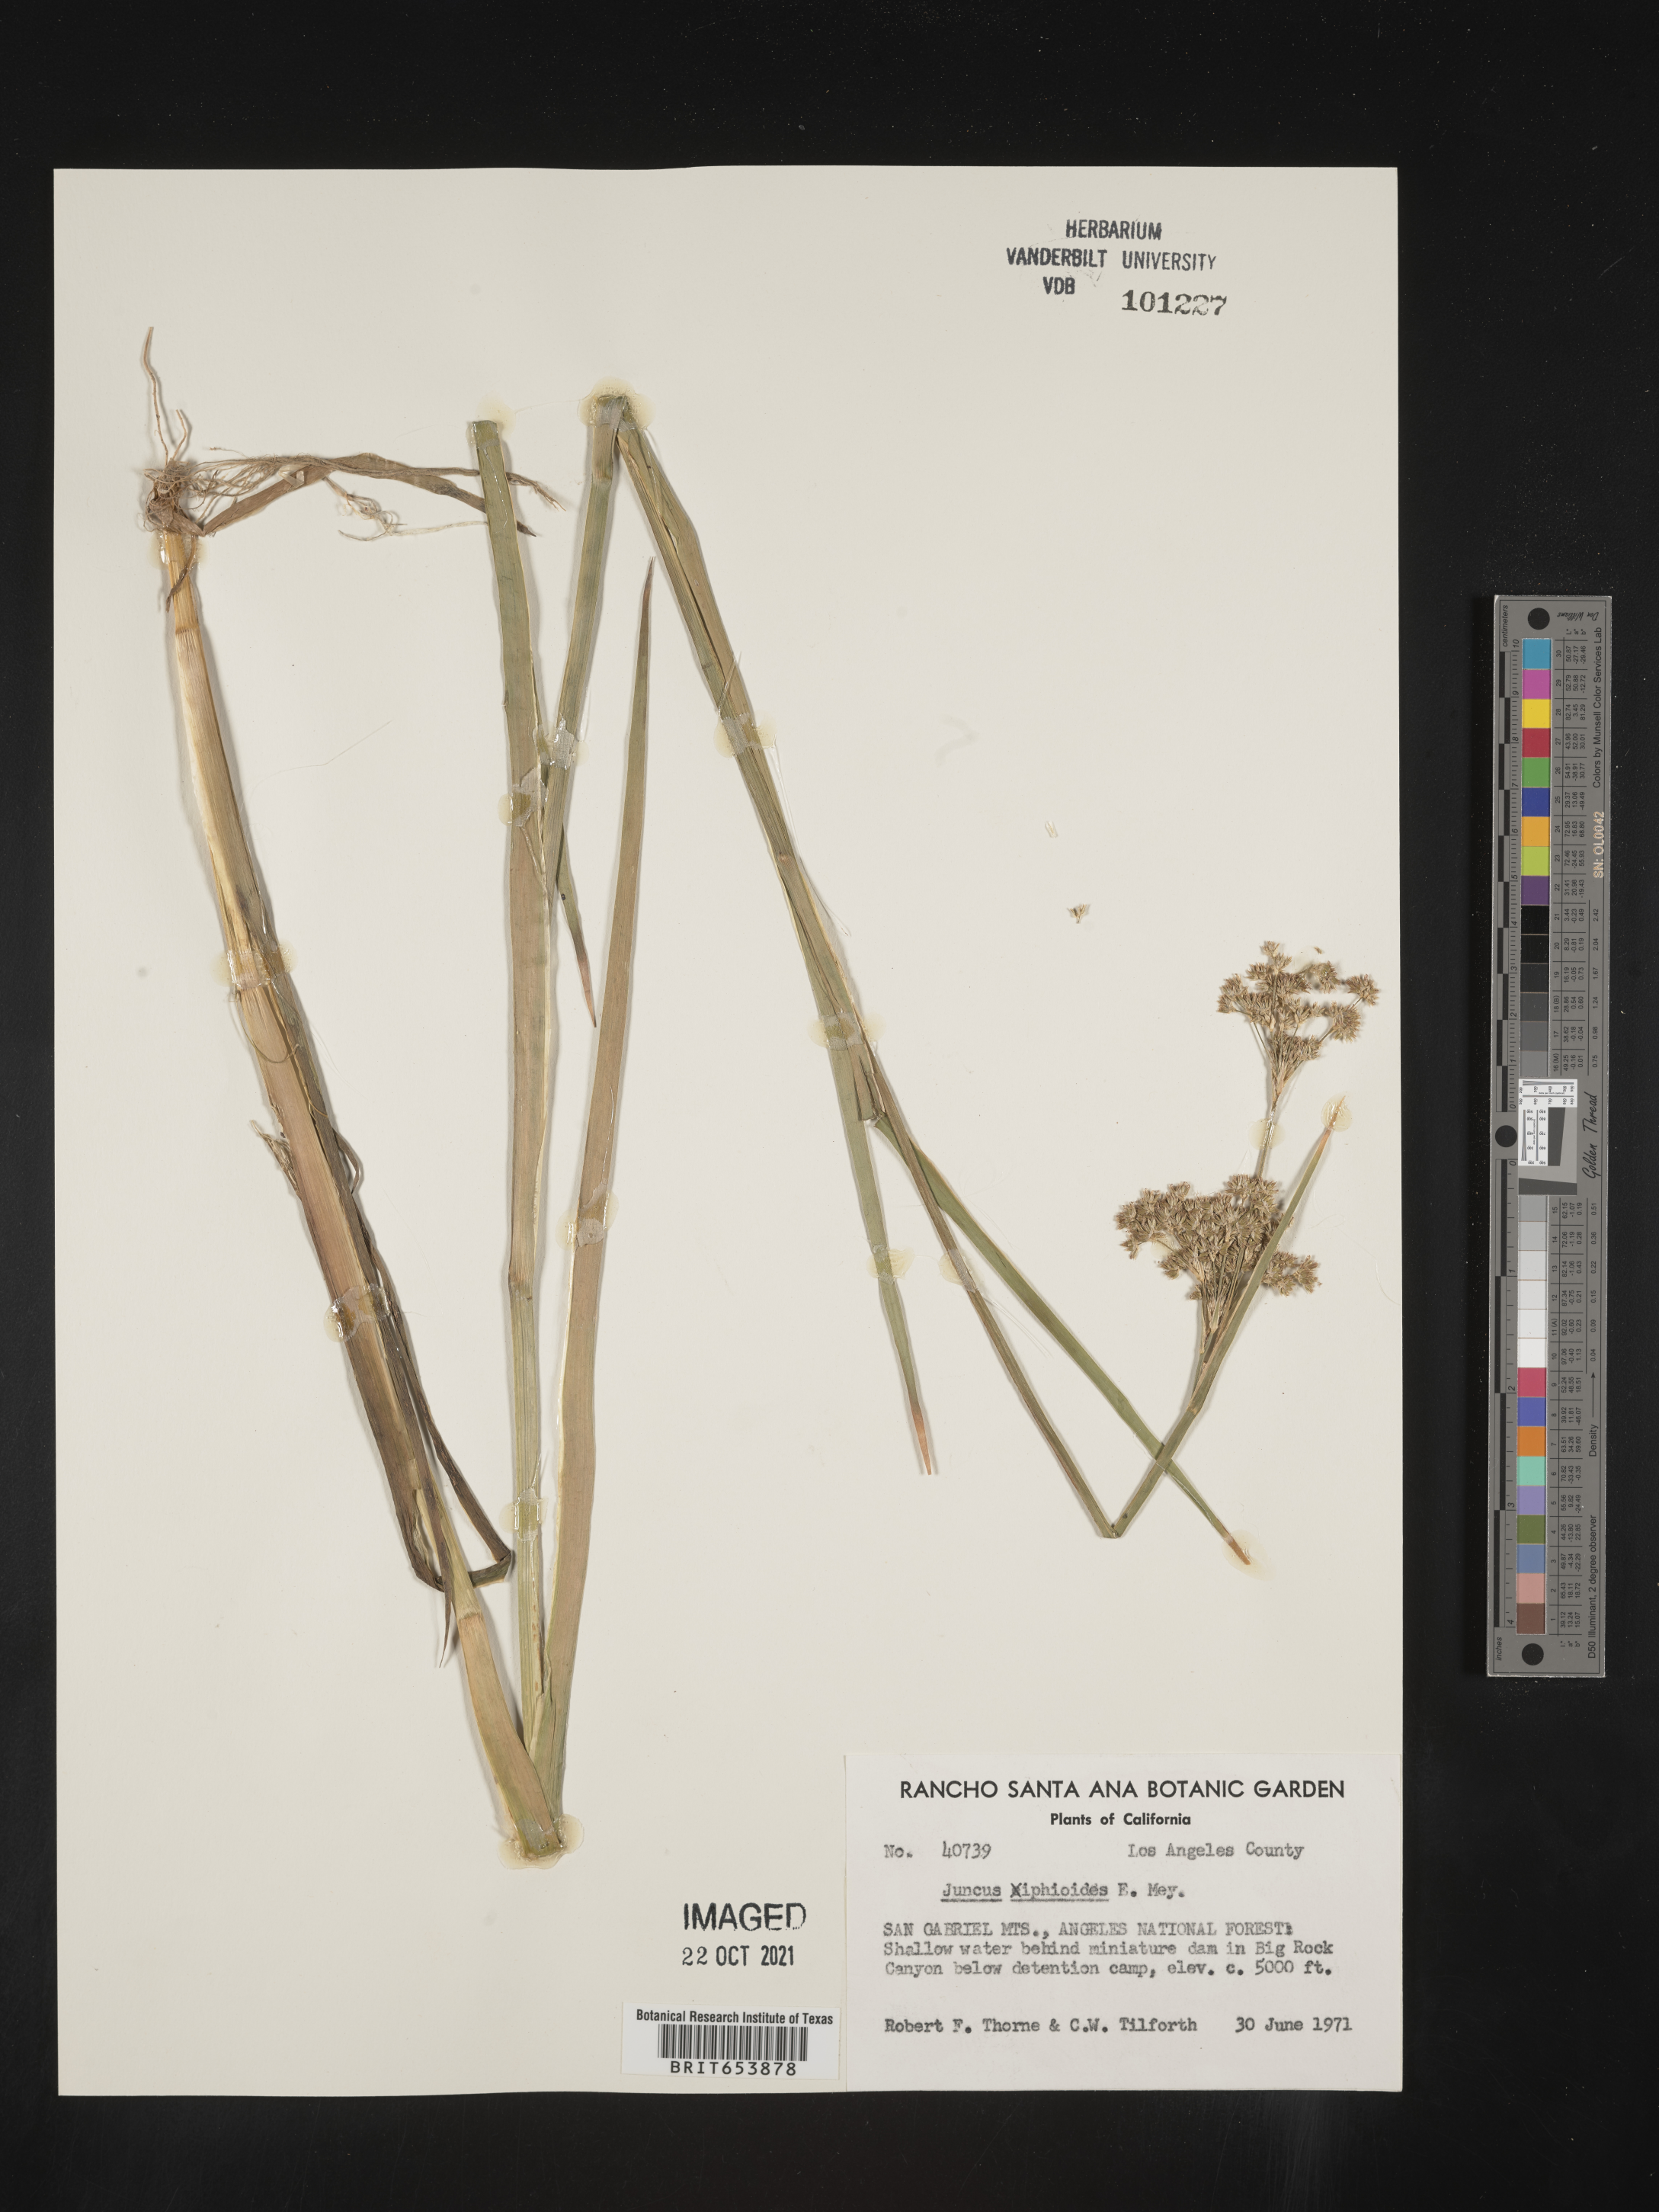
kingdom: Plantae
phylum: Tracheophyta
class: Liliopsida
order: Poales
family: Juncaceae
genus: Juncus
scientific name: Juncus xiphioides
